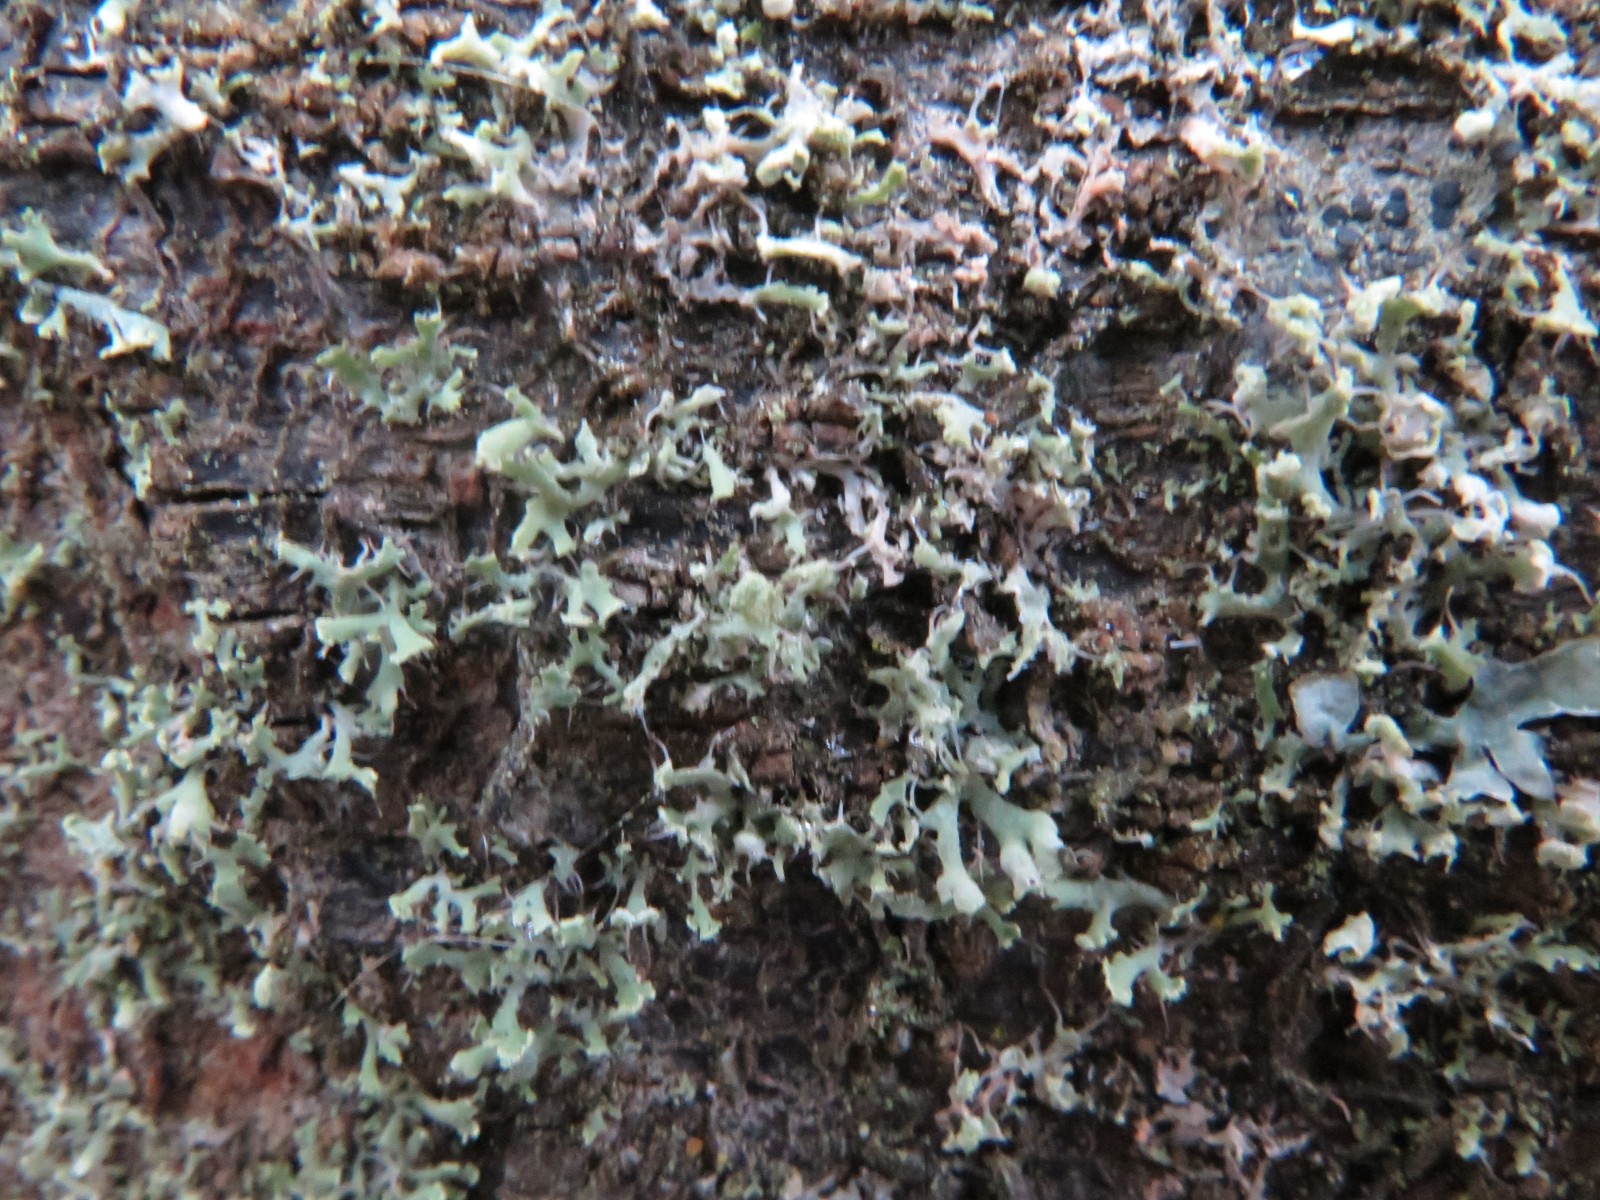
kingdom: Fungi
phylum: Ascomycota
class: Lecanoromycetes
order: Caliciales
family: Physciaceae
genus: Physcia
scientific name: Physcia tenella
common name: spæd rosetlav
